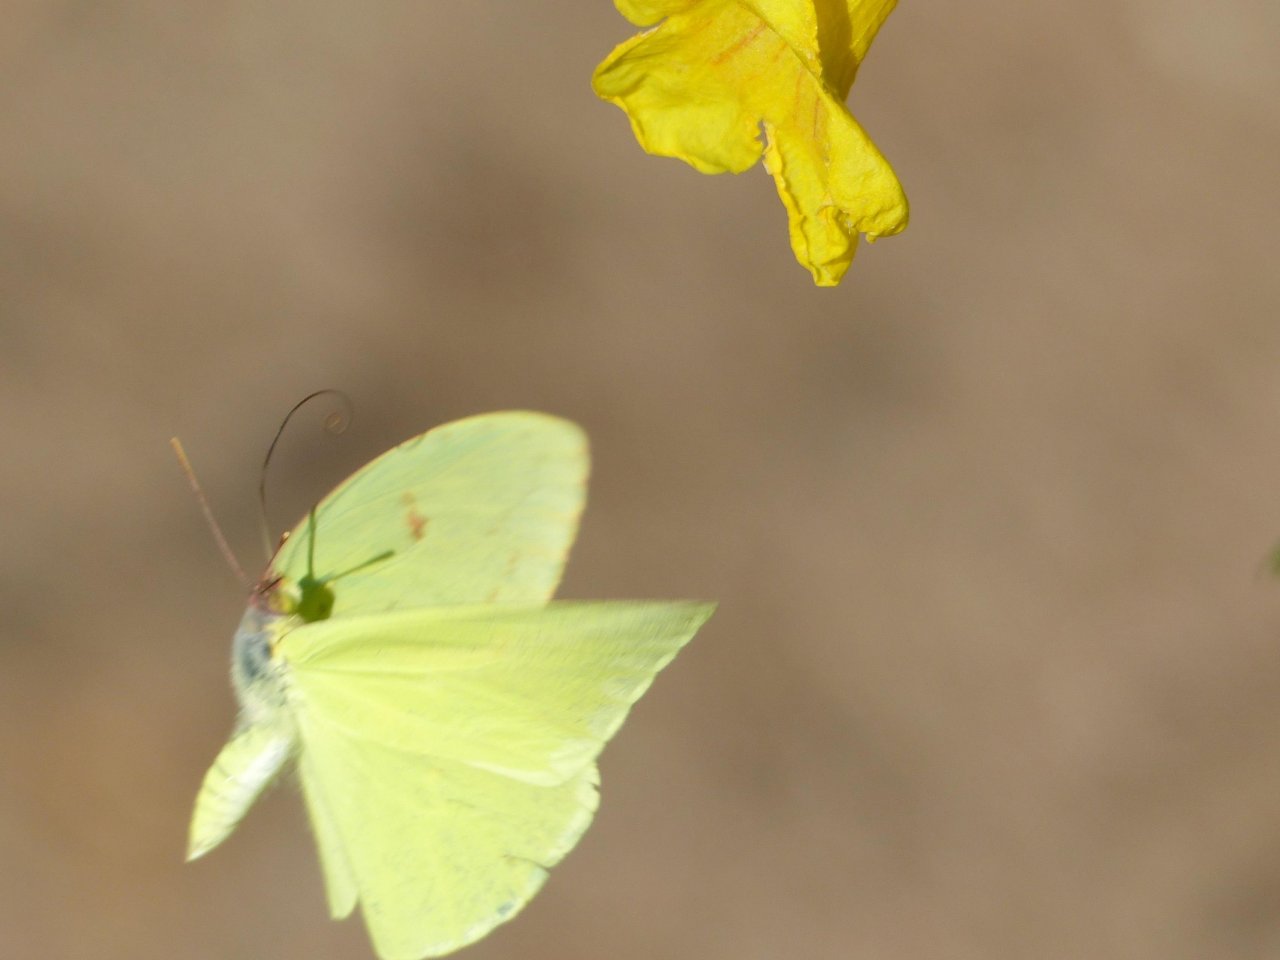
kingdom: Animalia
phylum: Arthropoda
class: Insecta
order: Lepidoptera
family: Pieridae
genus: Phoebis
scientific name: Phoebis sennae
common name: Cloudless Sulphur
